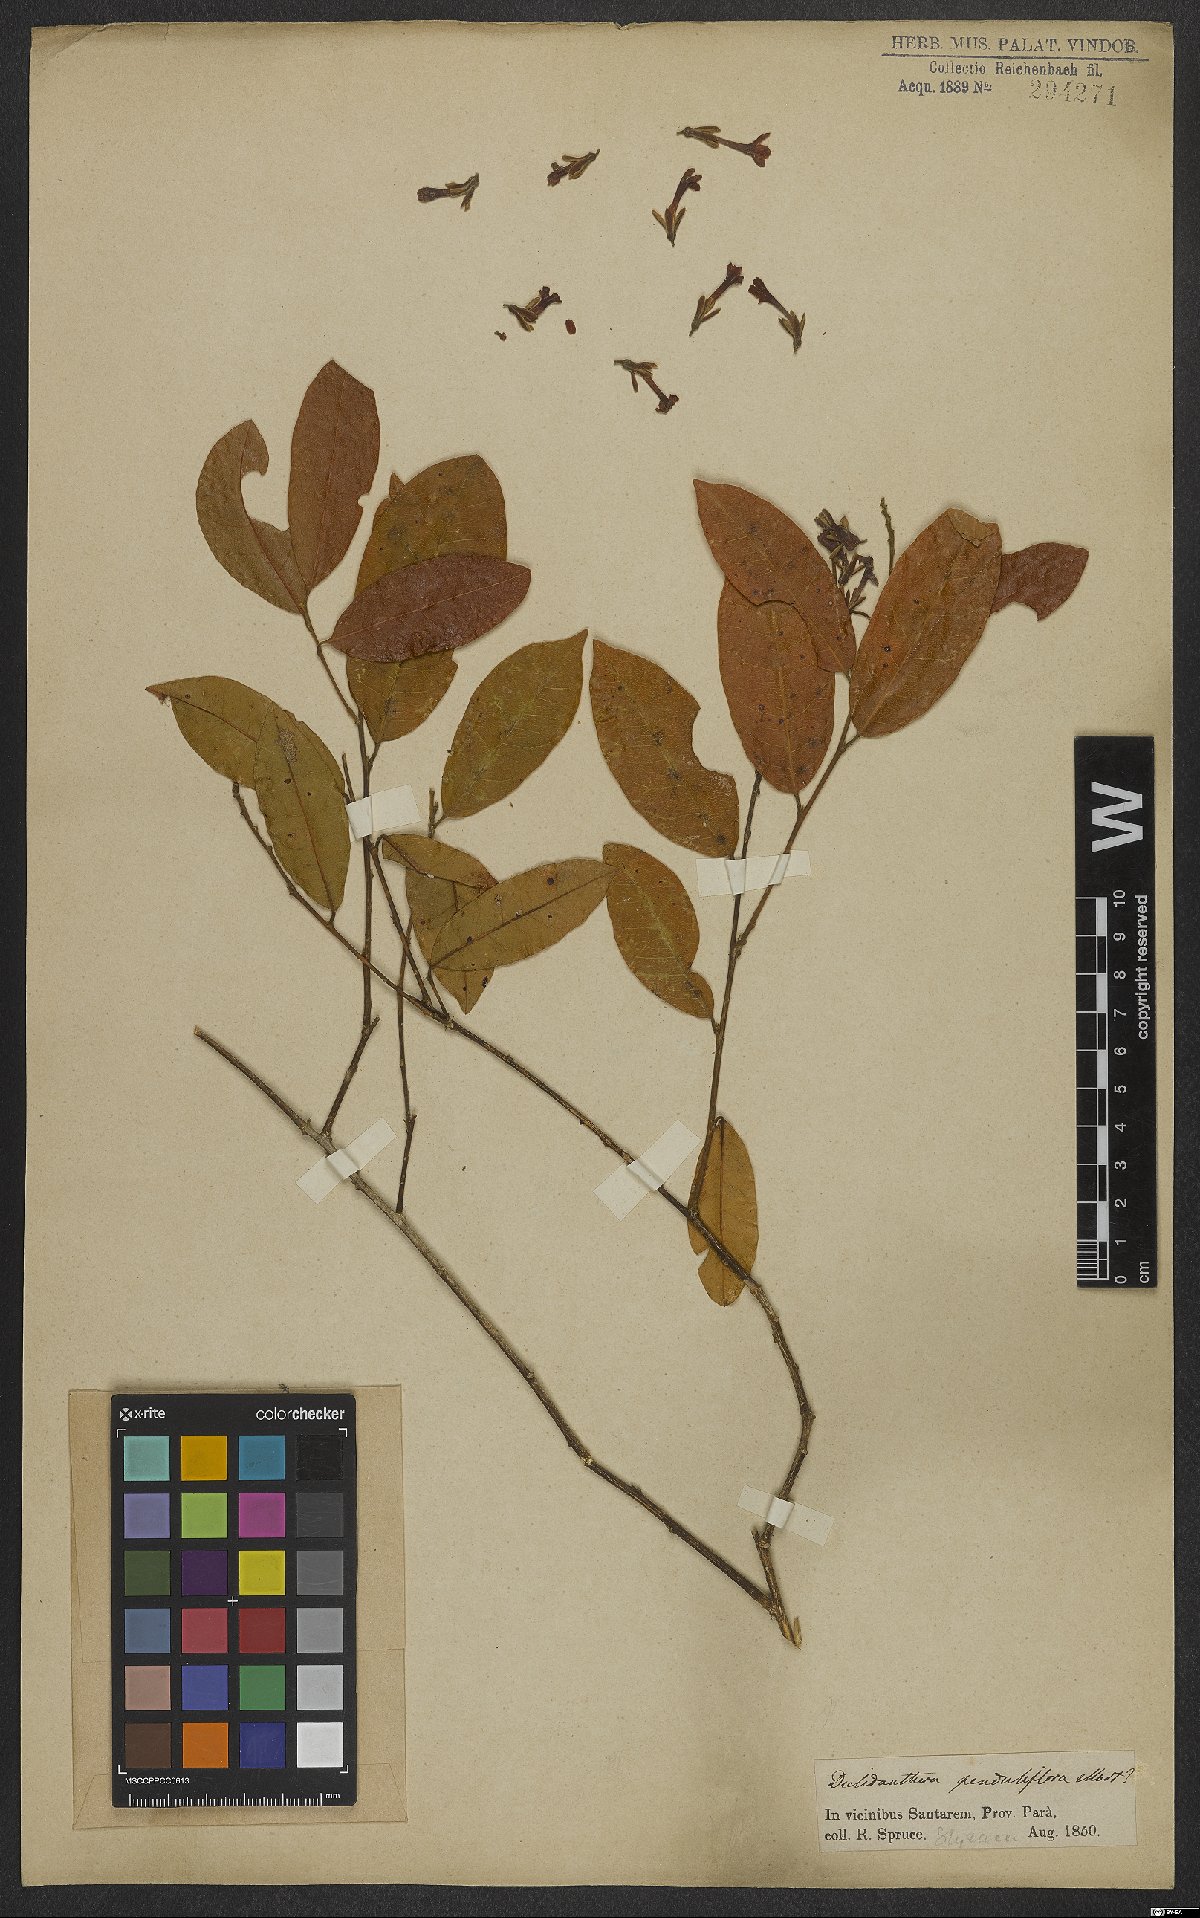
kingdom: Plantae
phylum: Tracheophyta
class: Magnoliopsida
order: Fabales
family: Polygalaceae
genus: Diclidanthera
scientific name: Diclidanthera penduliflora
